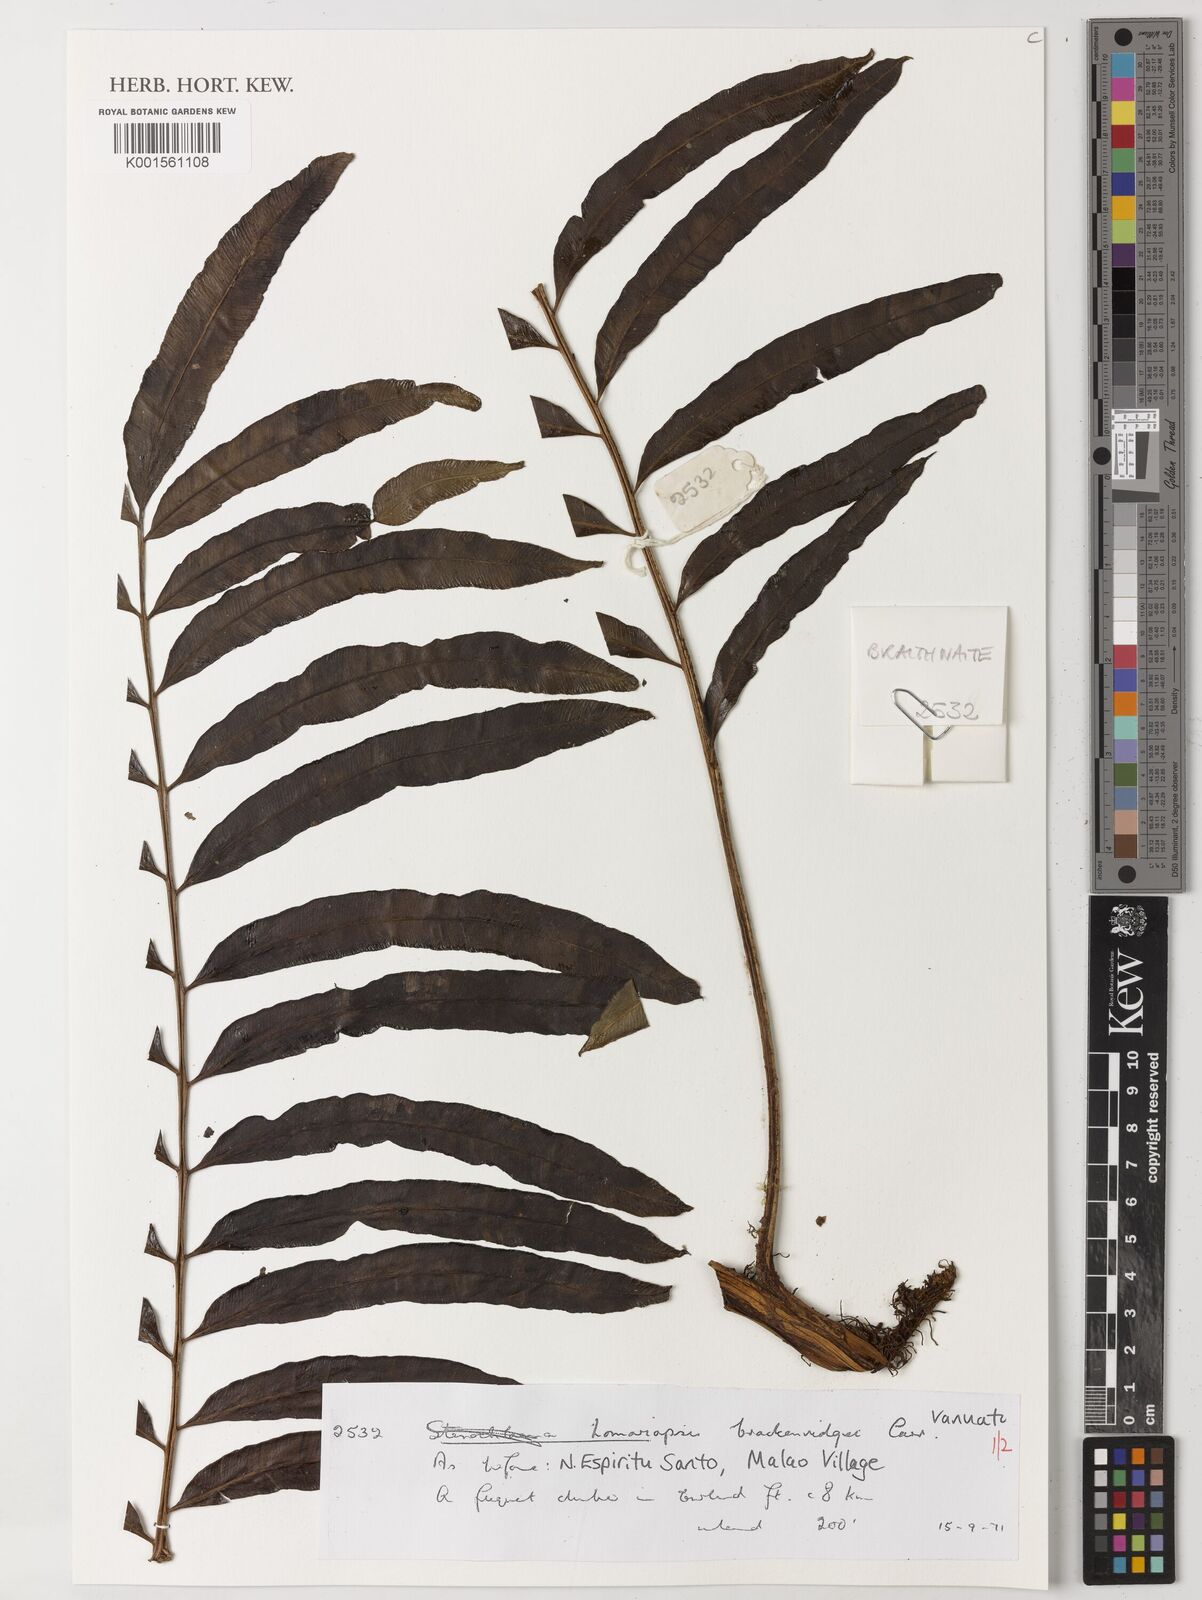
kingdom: Plantae
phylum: Tracheophyta
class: Polypodiopsida
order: Polypodiales
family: Lomariopsidaceae
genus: Lomariopsis
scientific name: Lomariopsis brackenridgei
